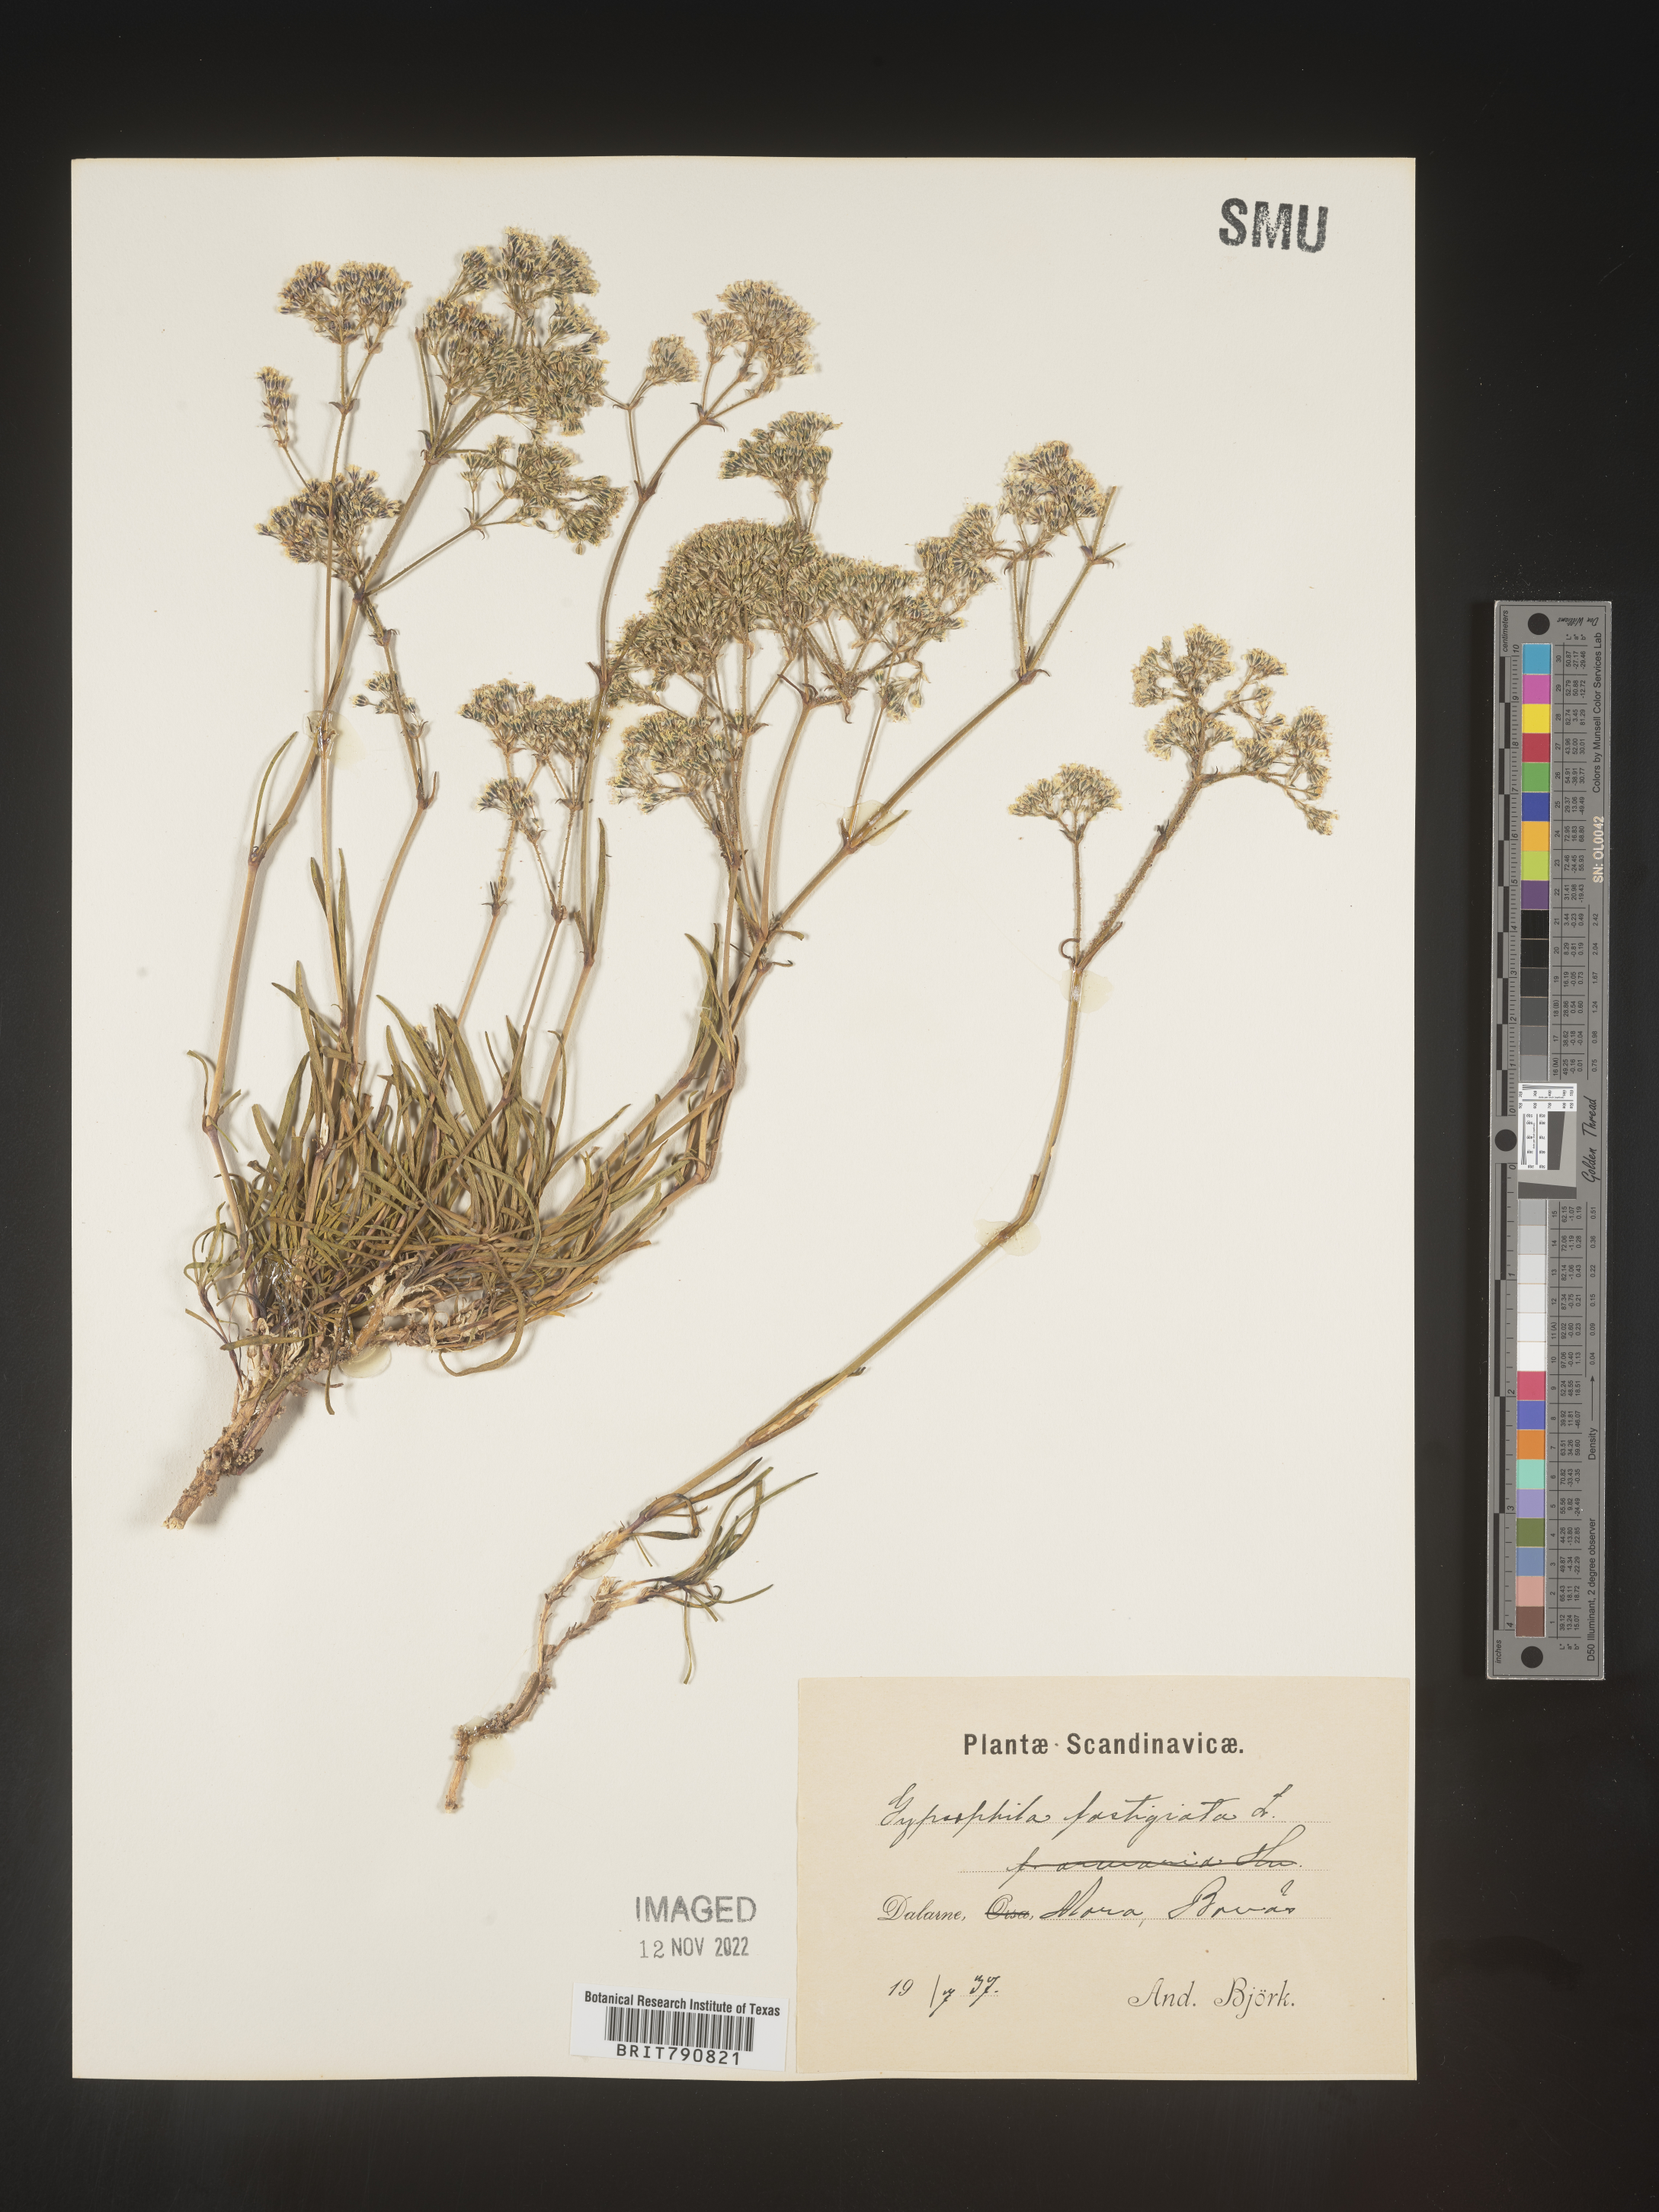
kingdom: Plantae
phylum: Tracheophyta
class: Magnoliopsida
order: Caryophyllales
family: Caryophyllaceae
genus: Gypsophila
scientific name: Gypsophila
